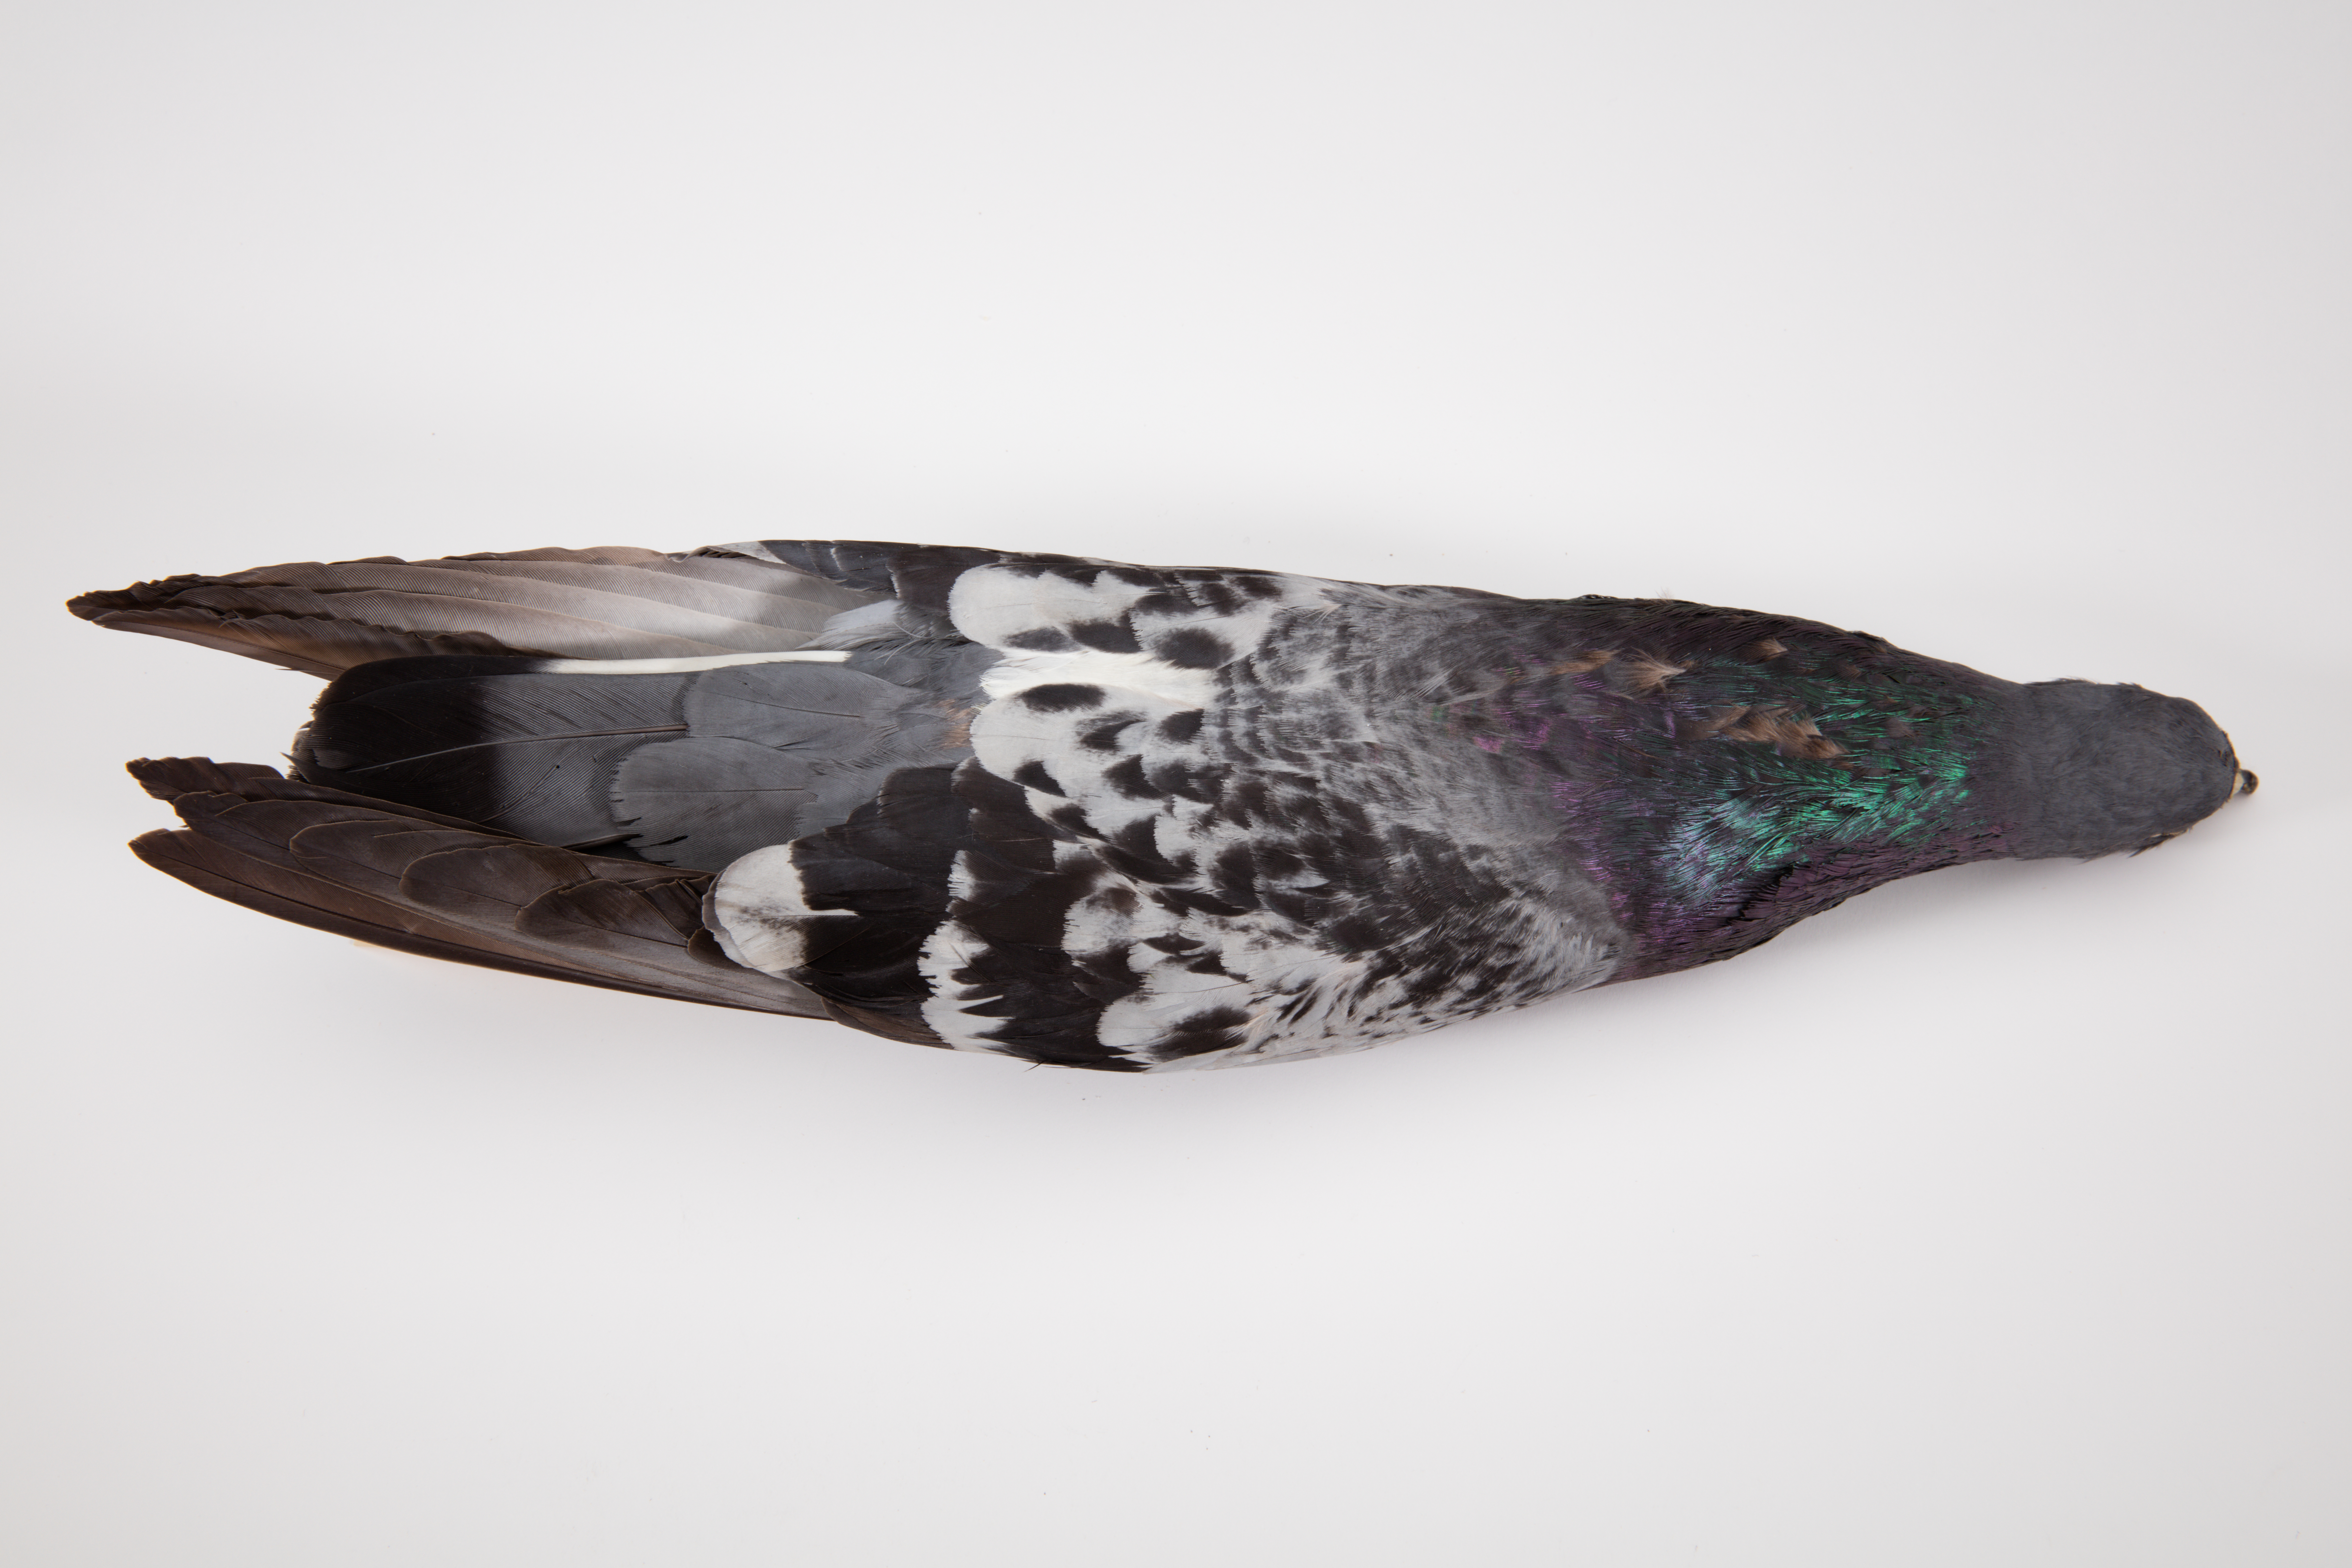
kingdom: Animalia
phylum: Chordata
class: Aves
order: Columbiformes
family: Columbidae
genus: Columba
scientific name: Columba livia
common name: Rock pigeon
